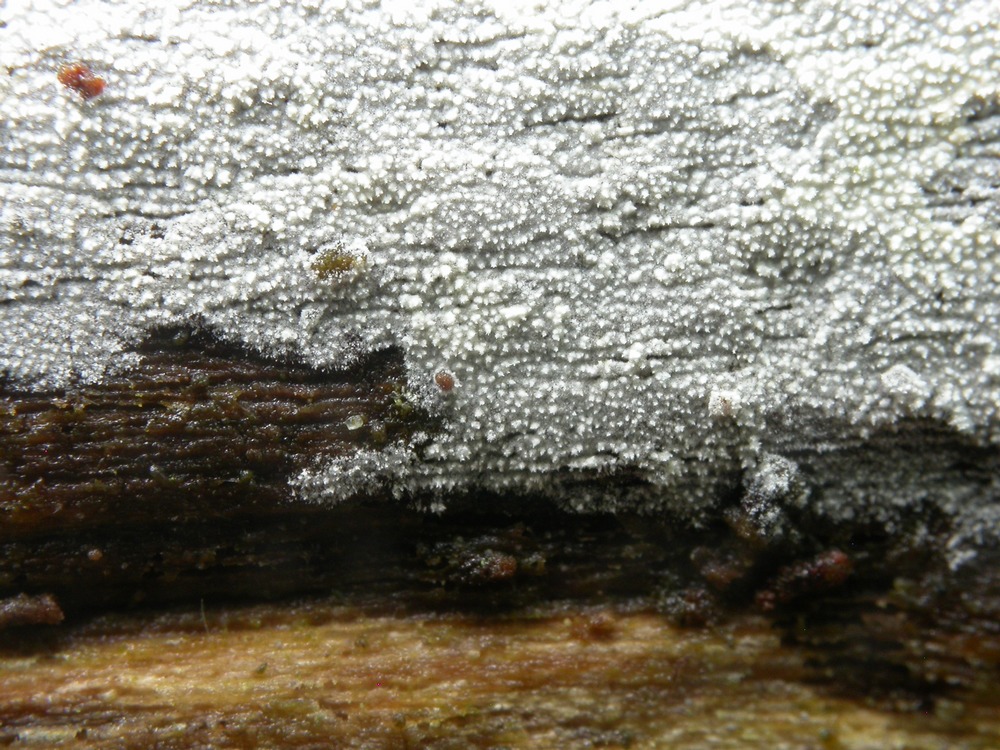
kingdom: Fungi
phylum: Basidiomycota
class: Agaricomycetes
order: Hymenochaetales
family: Schizoporaceae
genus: Xylodon
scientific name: Xylodon nesporii
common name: fintandet tandsvamp
